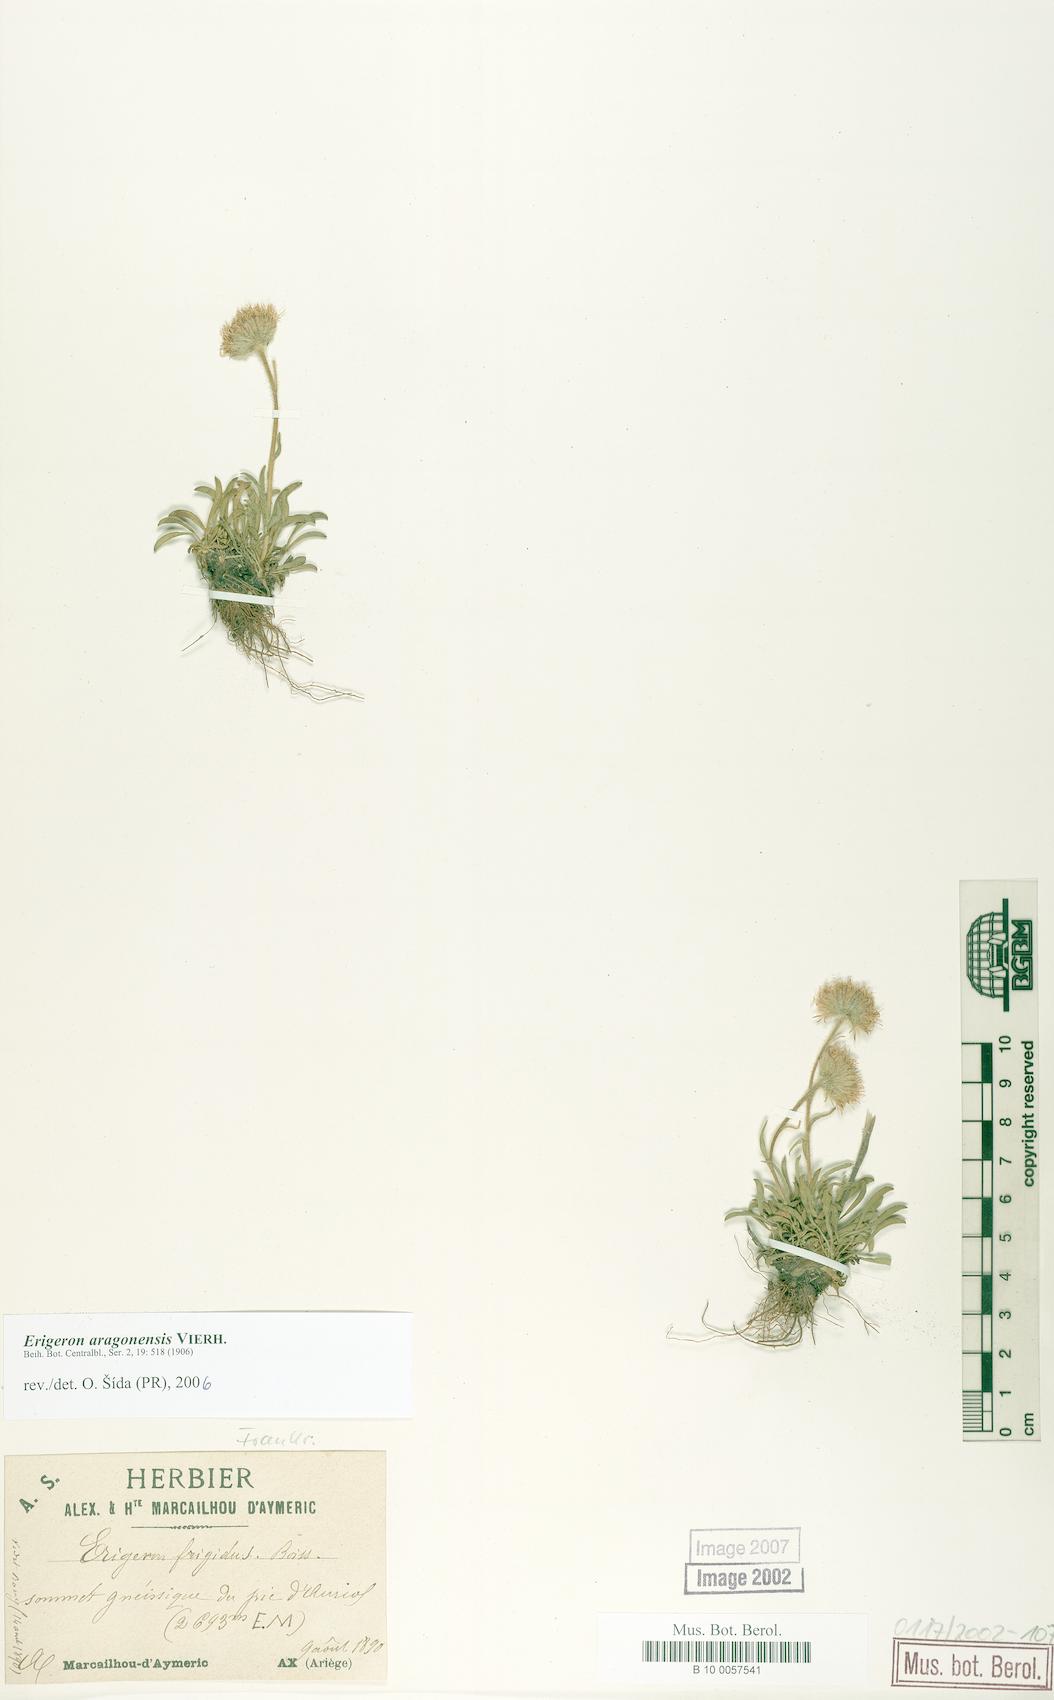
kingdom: Plantae
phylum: Tracheophyta
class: Magnoliopsida
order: Asterales
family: Asteraceae
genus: Erigeron
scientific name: Erigeron aragonensis
